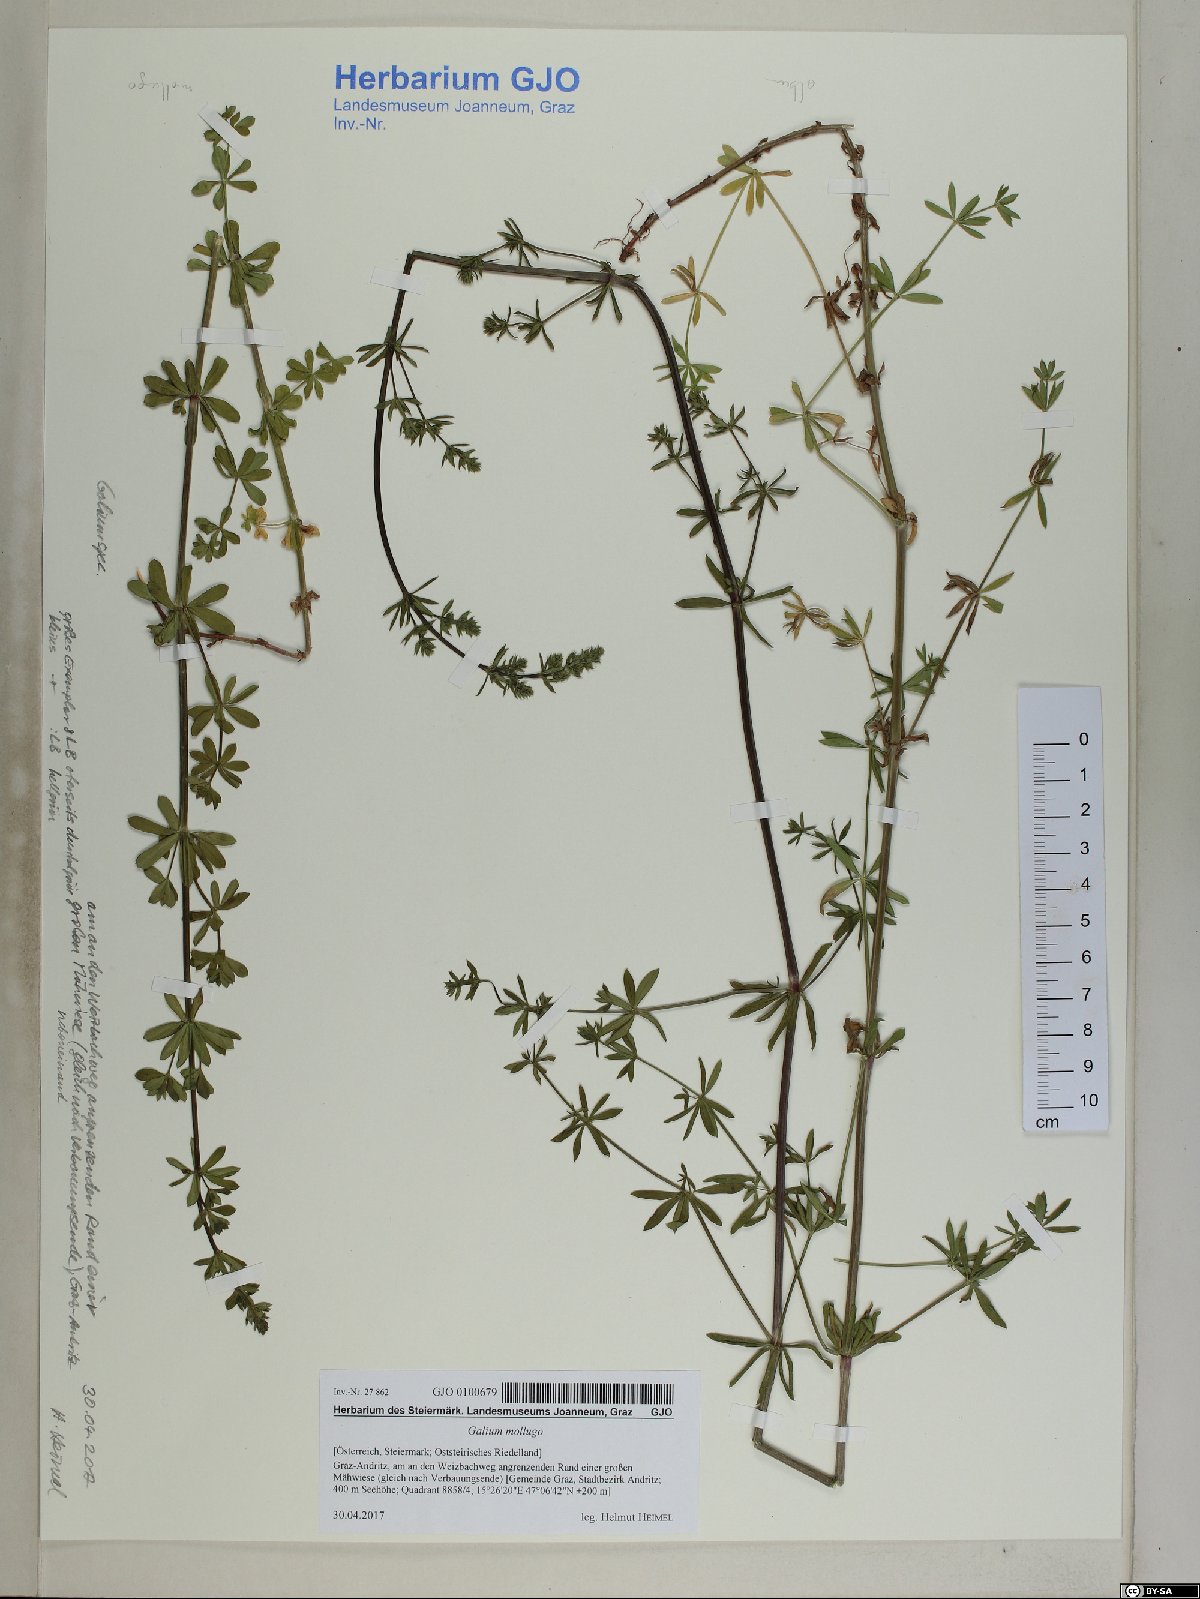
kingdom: Plantae
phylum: Tracheophyta
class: Magnoliopsida
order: Gentianales
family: Rubiaceae
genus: Galium
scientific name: Galium mollugo
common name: Hedge bedstraw
